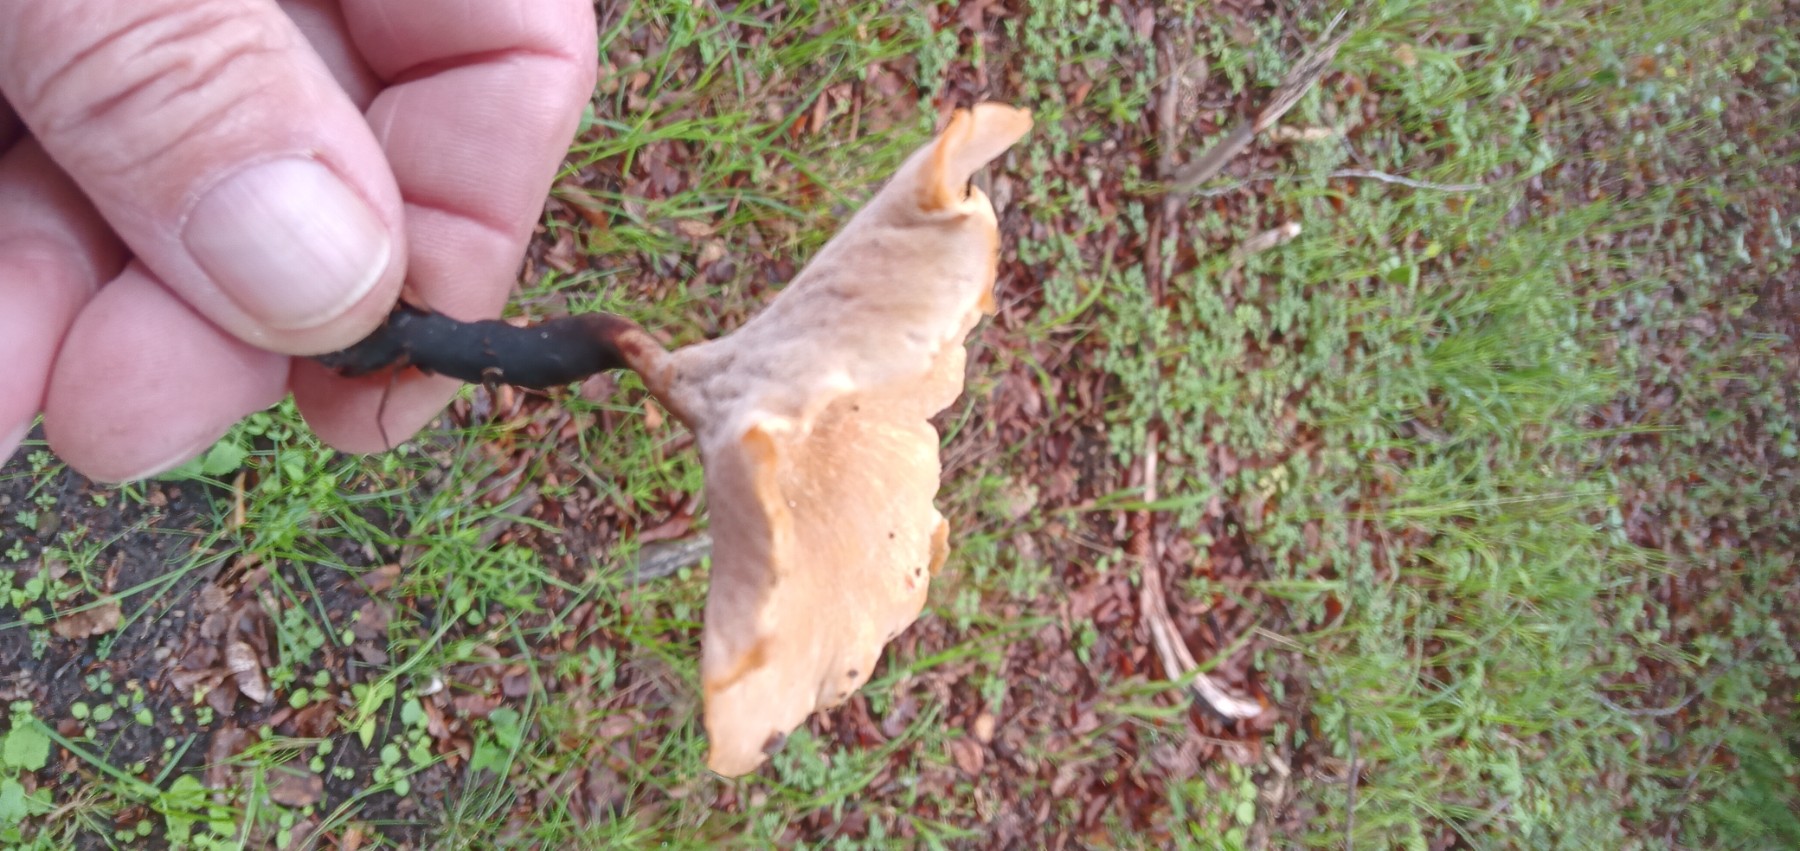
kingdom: Fungi
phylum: Basidiomycota
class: Agaricomycetes
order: Polyporales
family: Polyporaceae
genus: Cerioporus
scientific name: Cerioporus varius
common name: foranderlig stilkporesvamp
